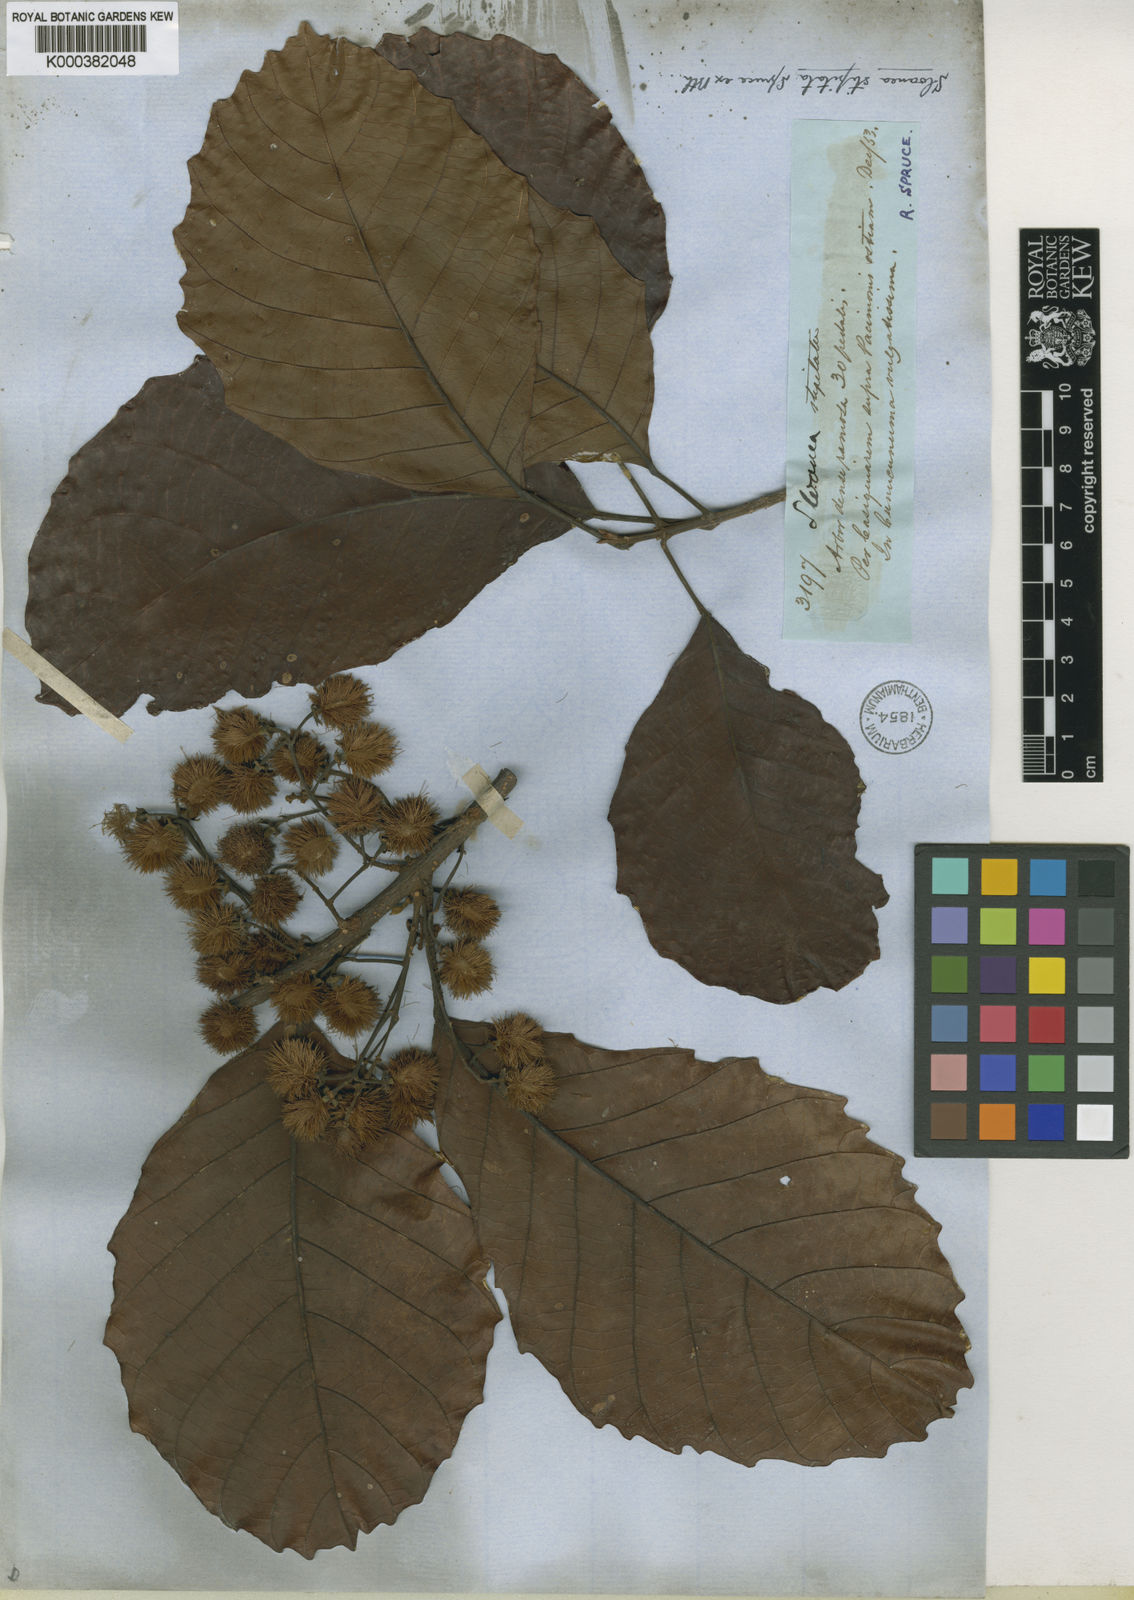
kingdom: Plantae
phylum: Tracheophyta
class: Magnoliopsida
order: Oxalidales
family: Elaeocarpaceae
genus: Sloanea
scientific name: Sloanea guianensis
